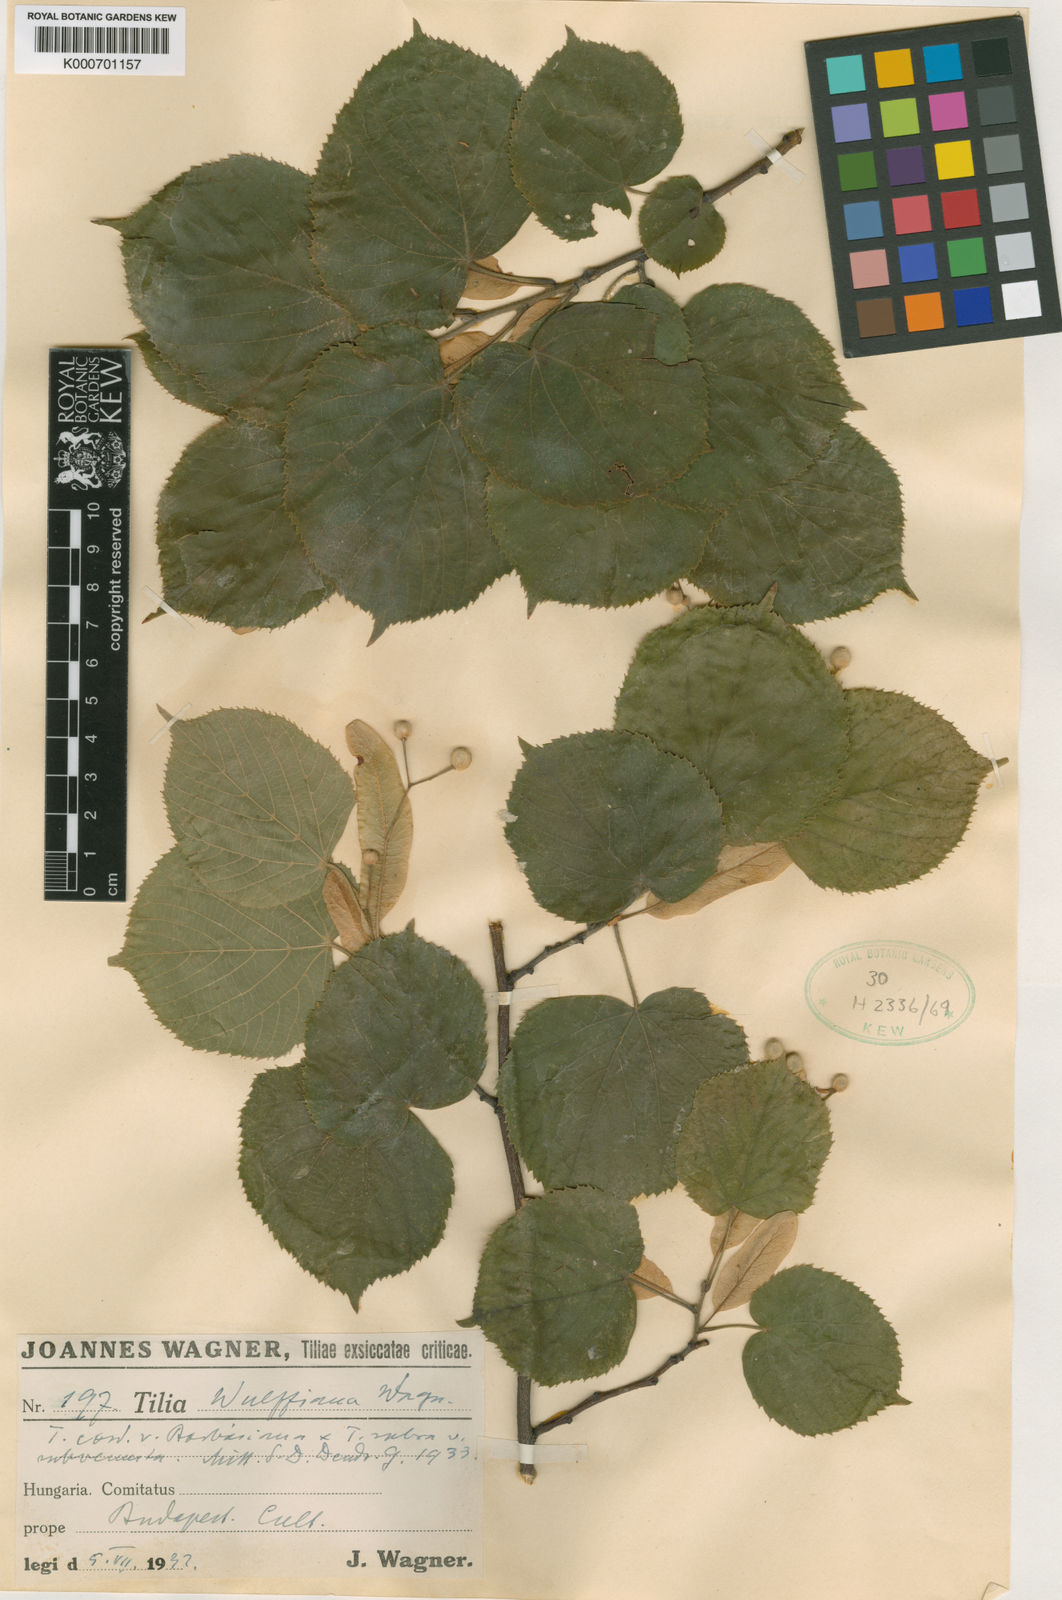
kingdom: Plantae
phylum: Tracheophyta
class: Magnoliopsida
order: Malvales
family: Malvaceae
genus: Tilia
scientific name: Tilia
